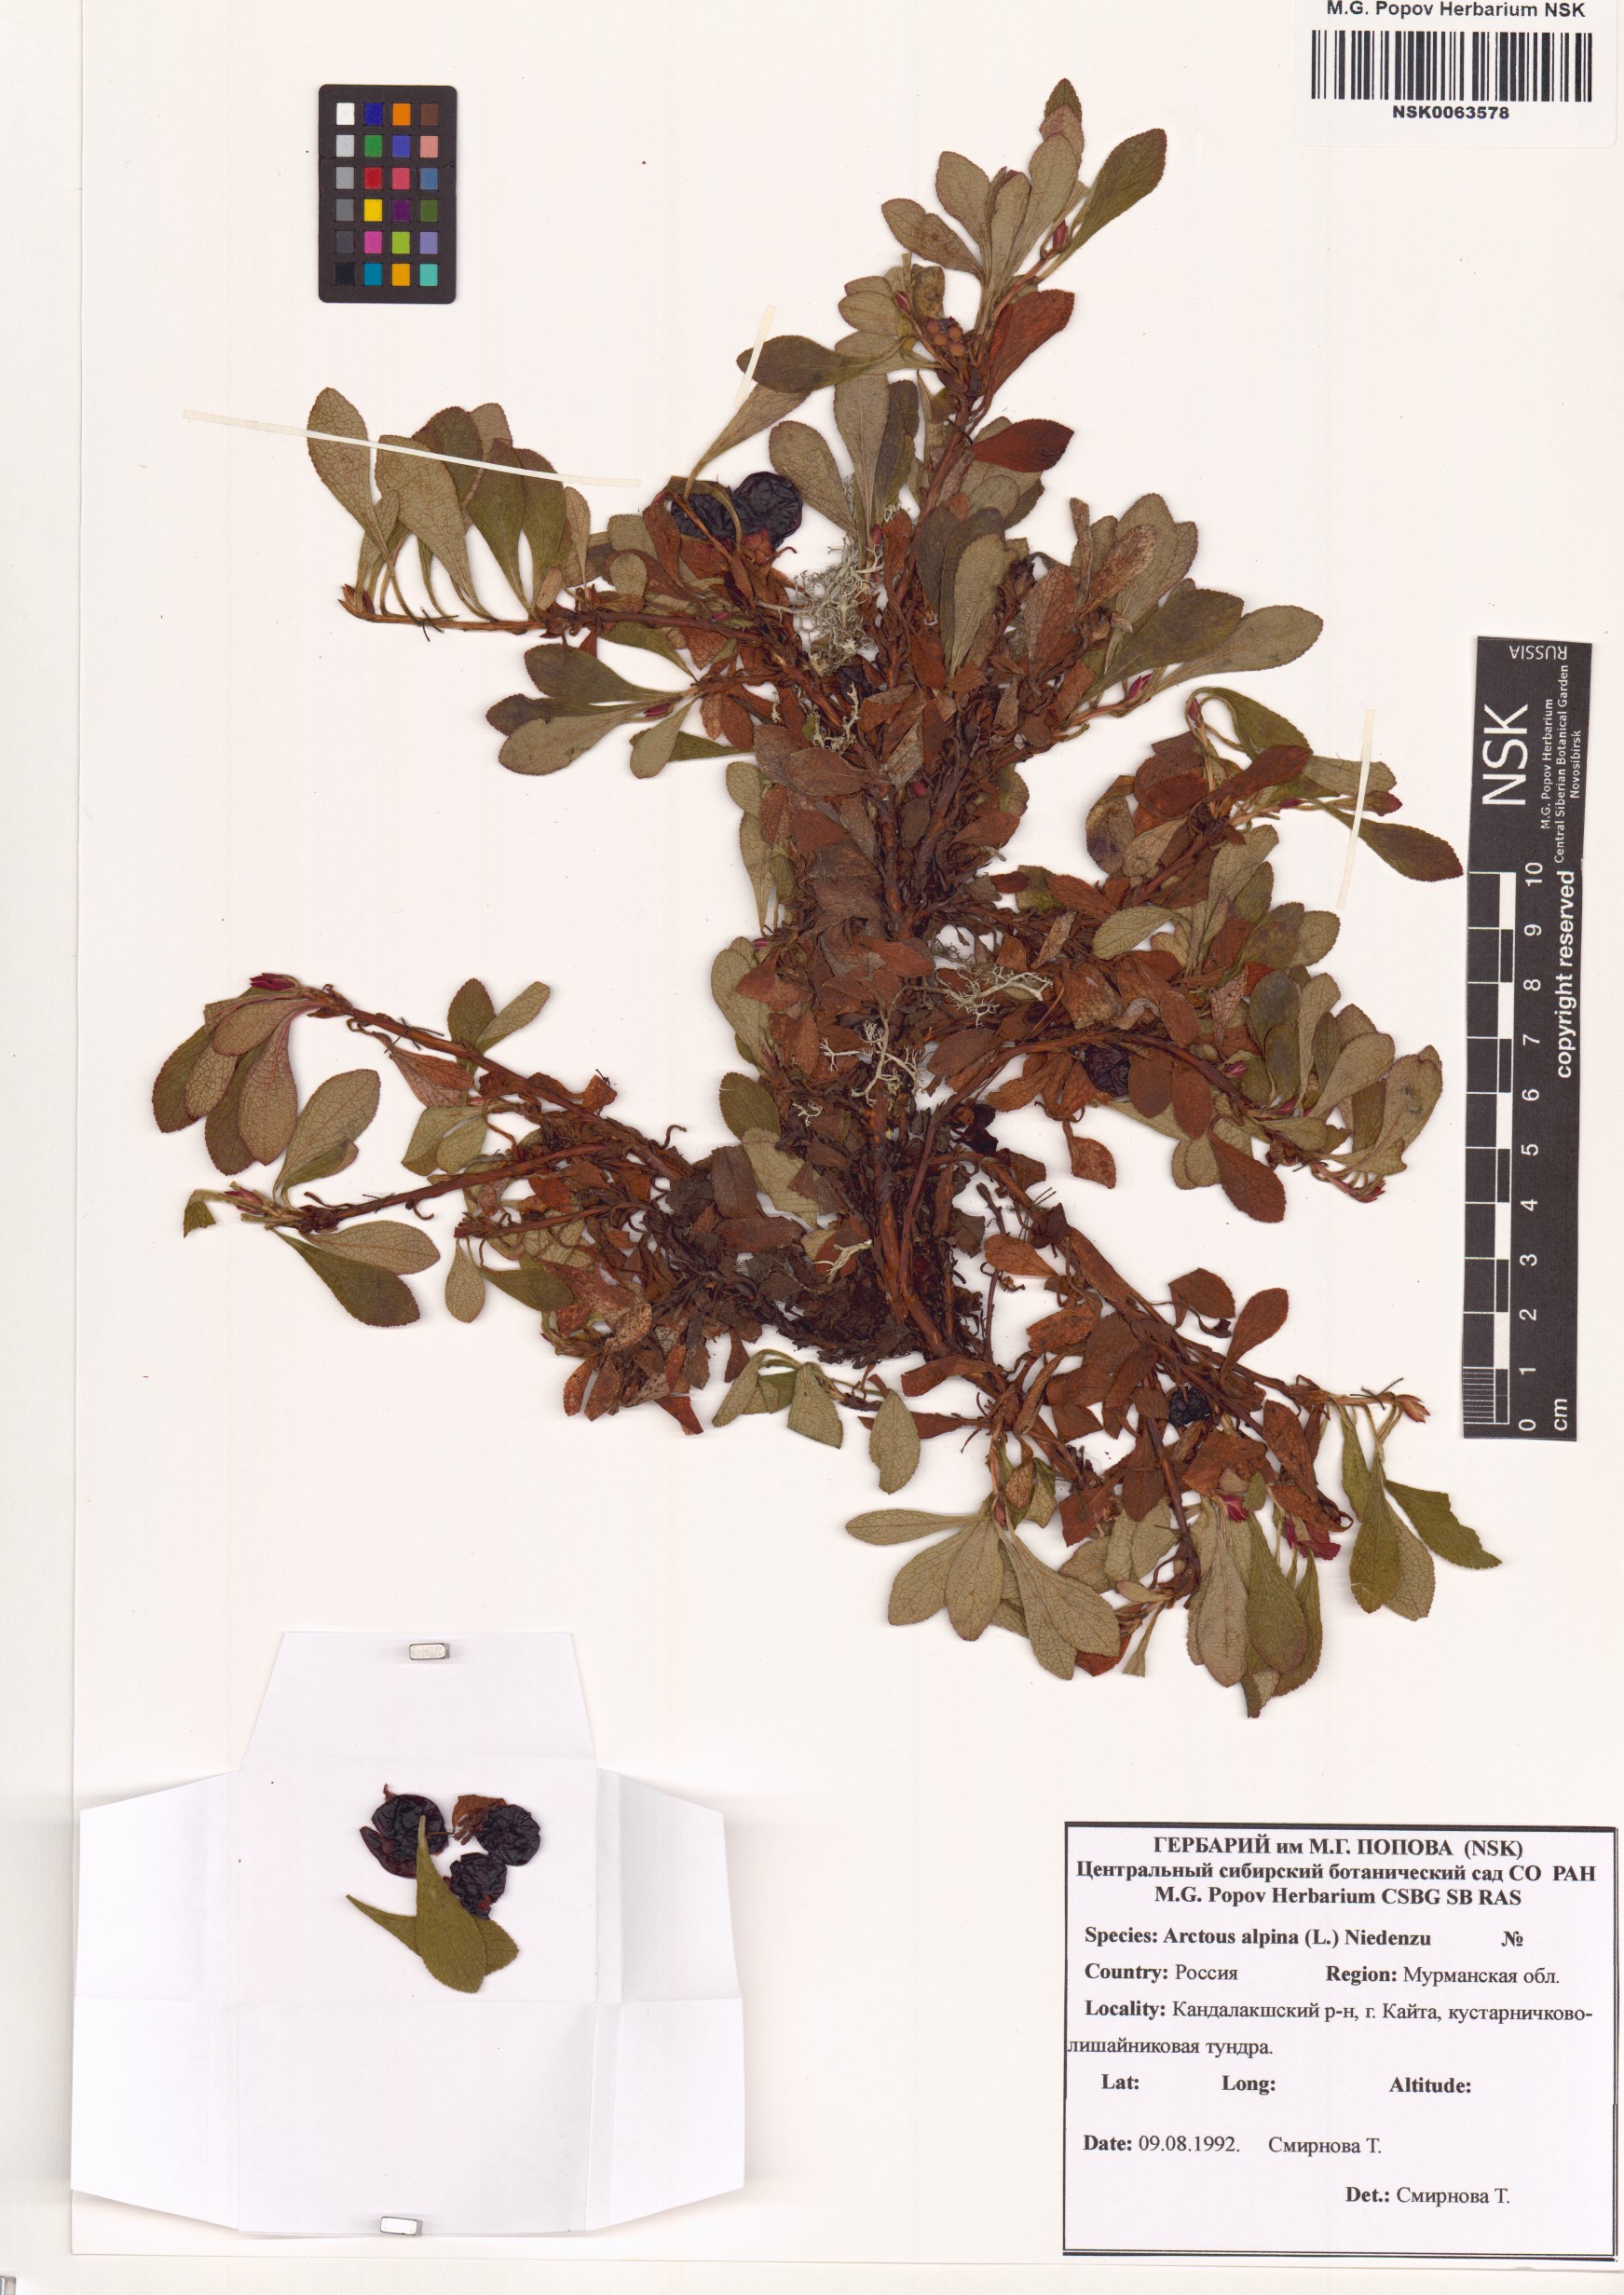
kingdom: Plantae
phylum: Tracheophyta
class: Magnoliopsida
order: Ericales
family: Ericaceae
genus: Arctostaphylos
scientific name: Arctostaphylos alpinus
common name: Alpine bearberry
